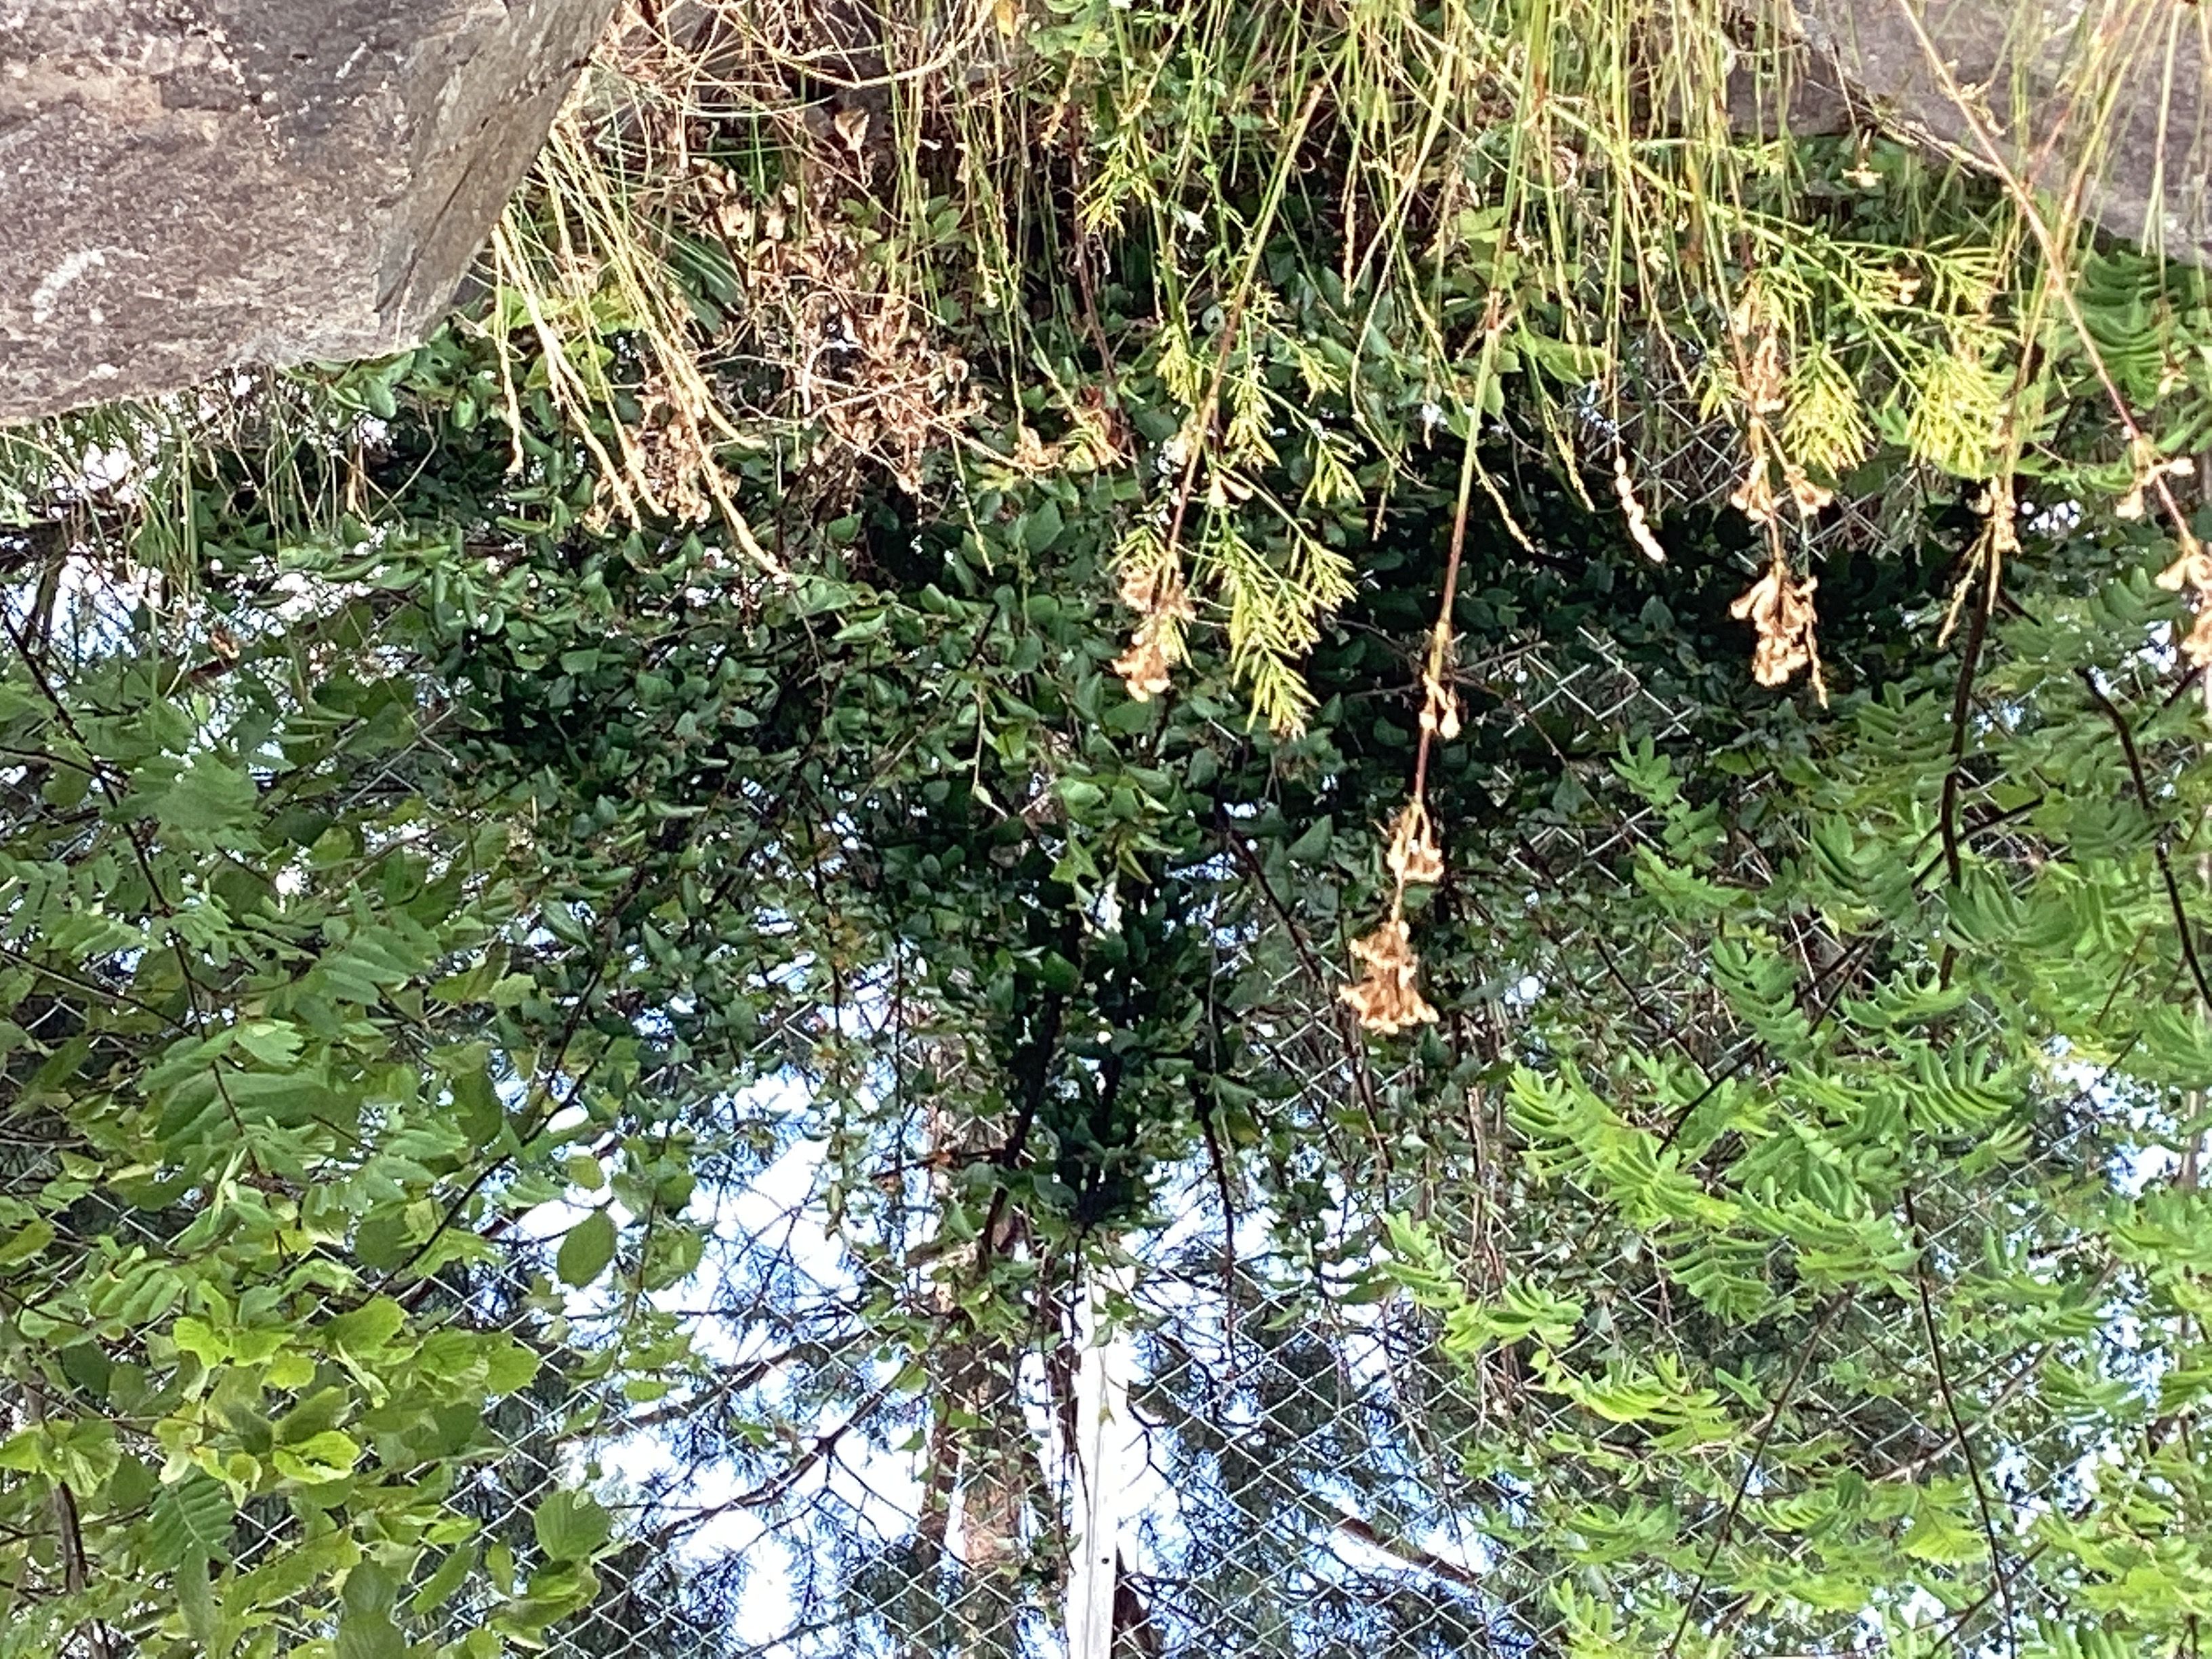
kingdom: Plantae
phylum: Tracheophyta
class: Magnoliopsida
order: Rosales
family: Rosaceae
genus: Cotoneaster
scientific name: Cotoneaster acutifolius
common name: blankmispel
